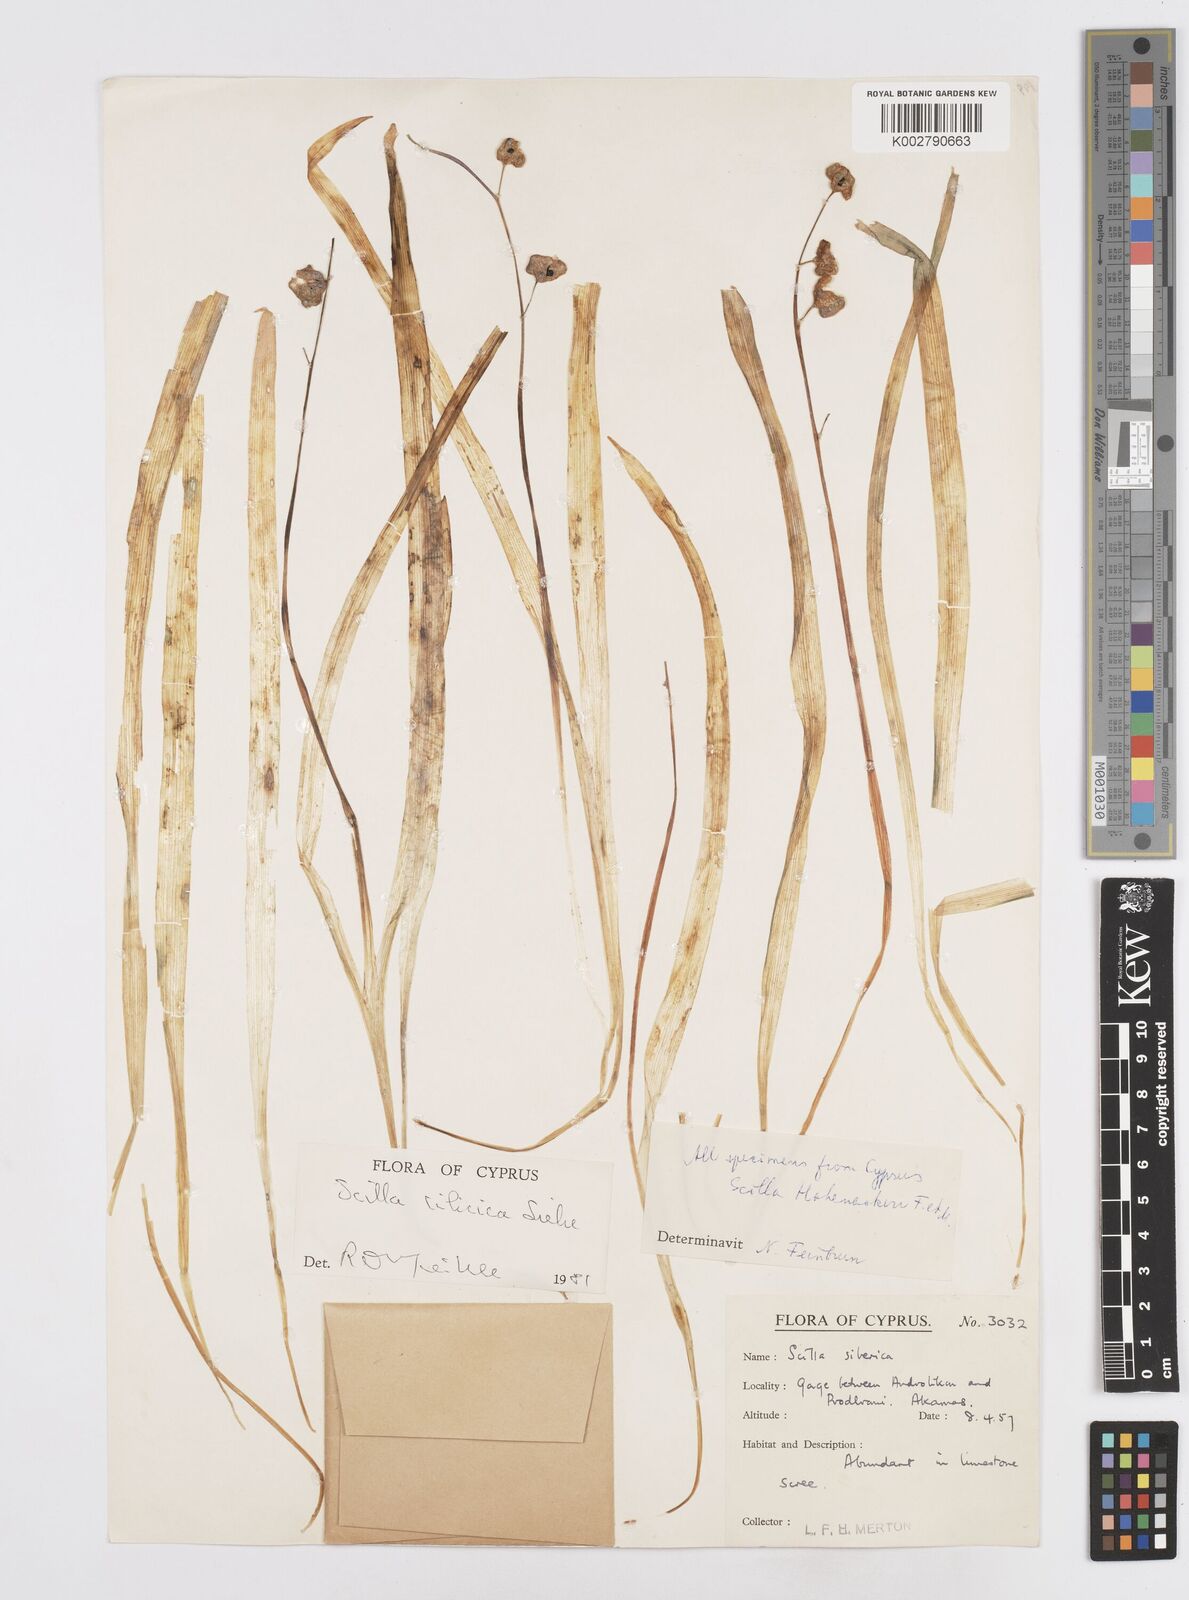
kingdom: Plantae
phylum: Tracheophyta
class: Liliopsida
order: Asparagales
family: Asparagaceae
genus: Scilla
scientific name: Scilla cilicica
